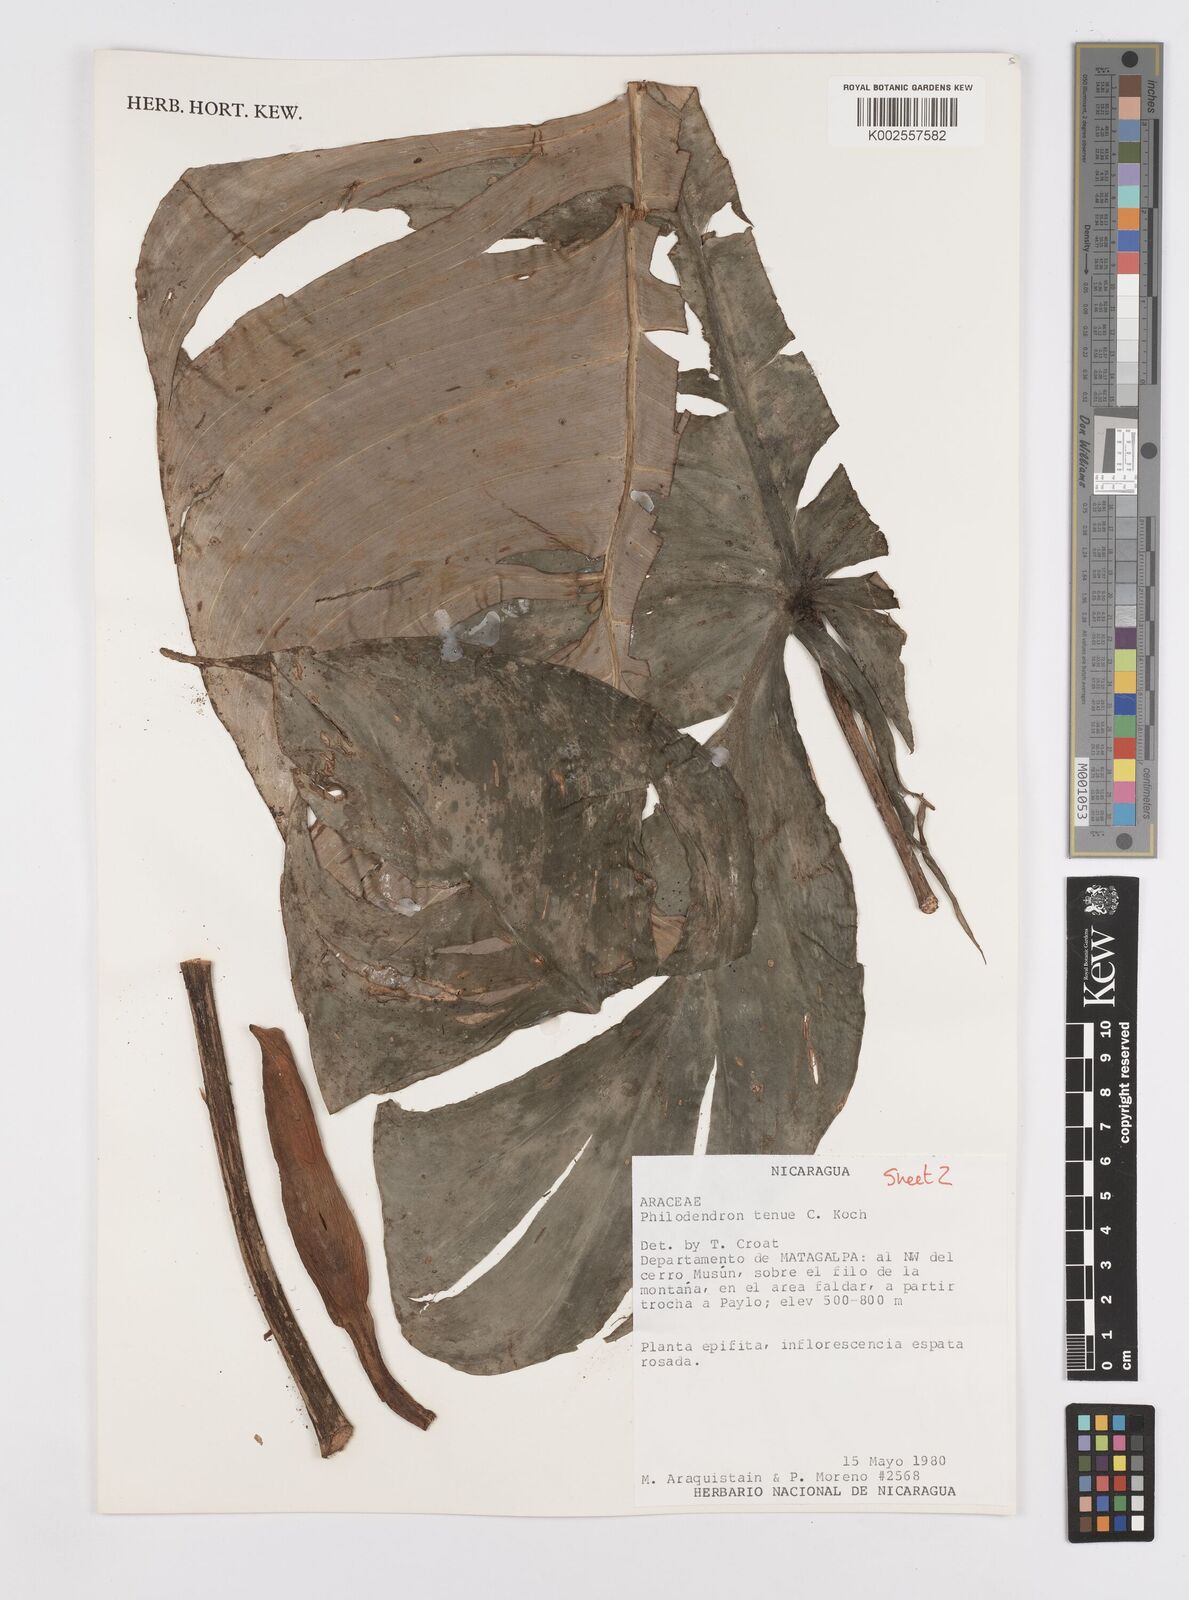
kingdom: Plantae
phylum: Tracheophyta
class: Liliopsida
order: Alismatales
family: Araceae
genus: Philodendron
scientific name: Philodendron tenue
